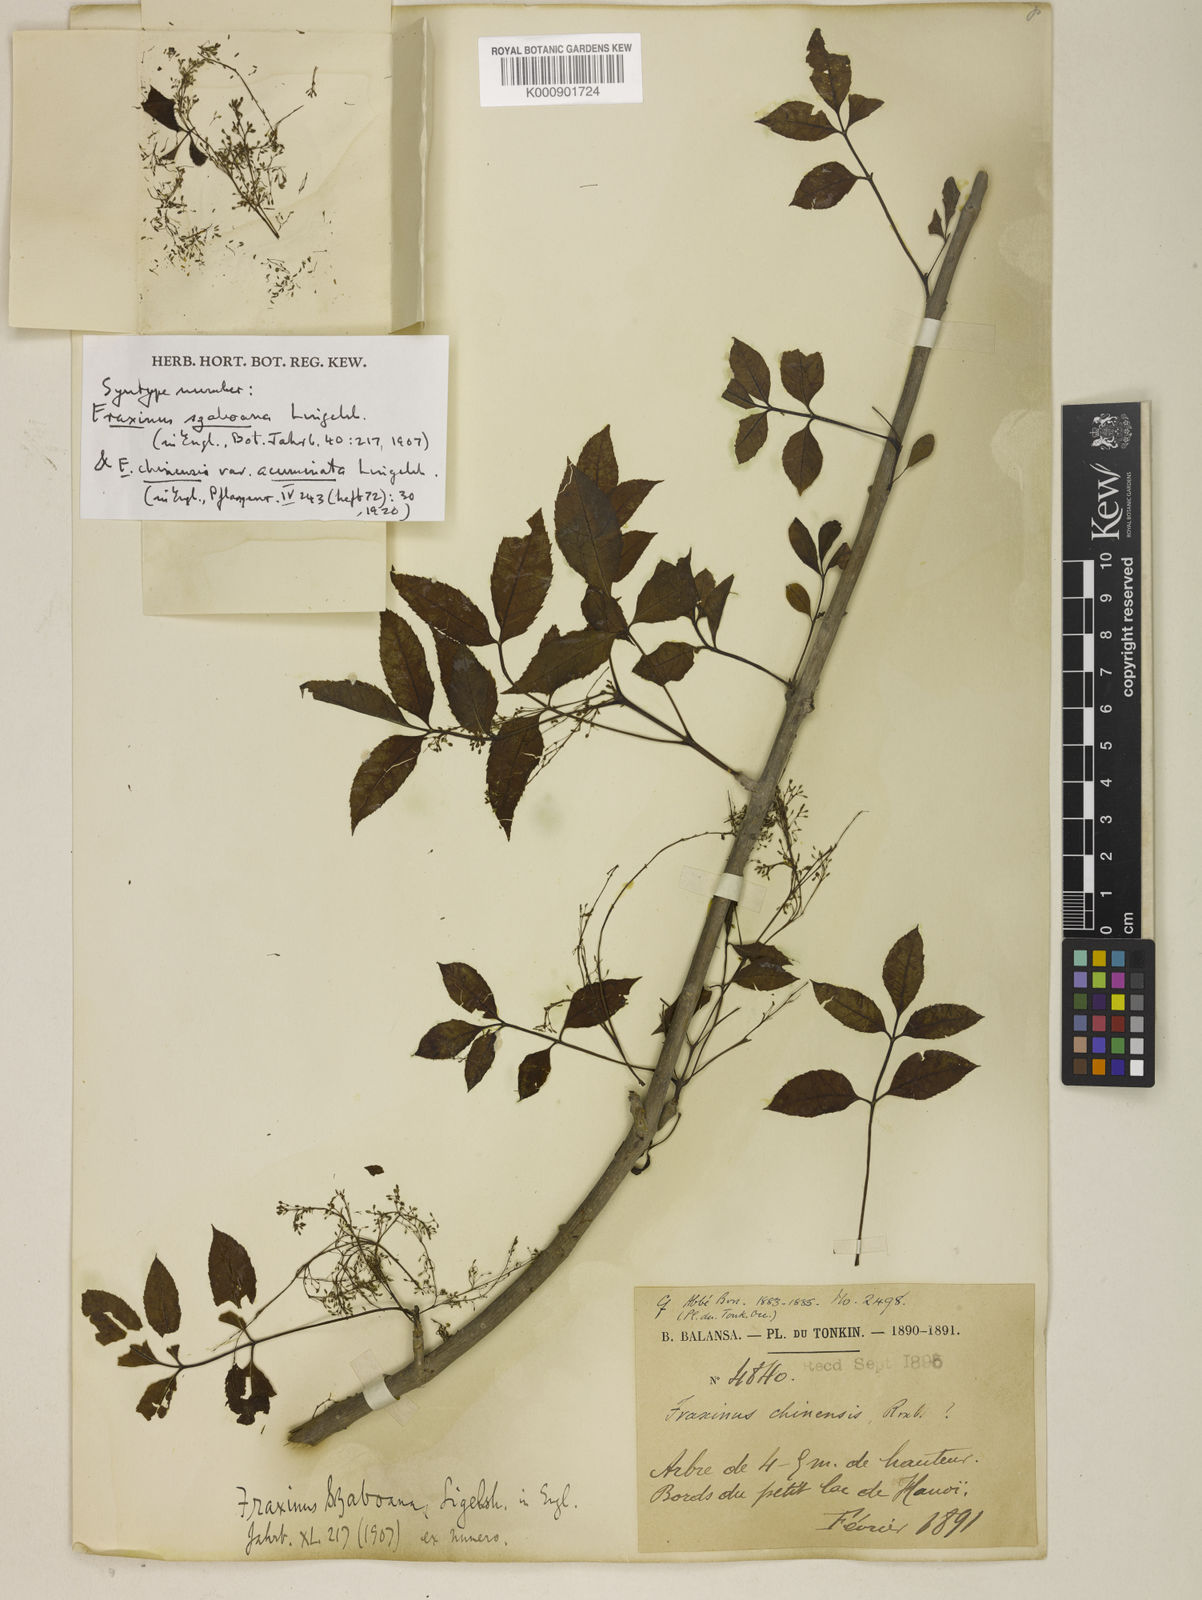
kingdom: Plantae
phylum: Tracheophyta
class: Magnoliopsida
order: Lamiales
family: Oleaceae
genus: Fraxinus
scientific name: Fraxinus chinensis
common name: Chinese ash
